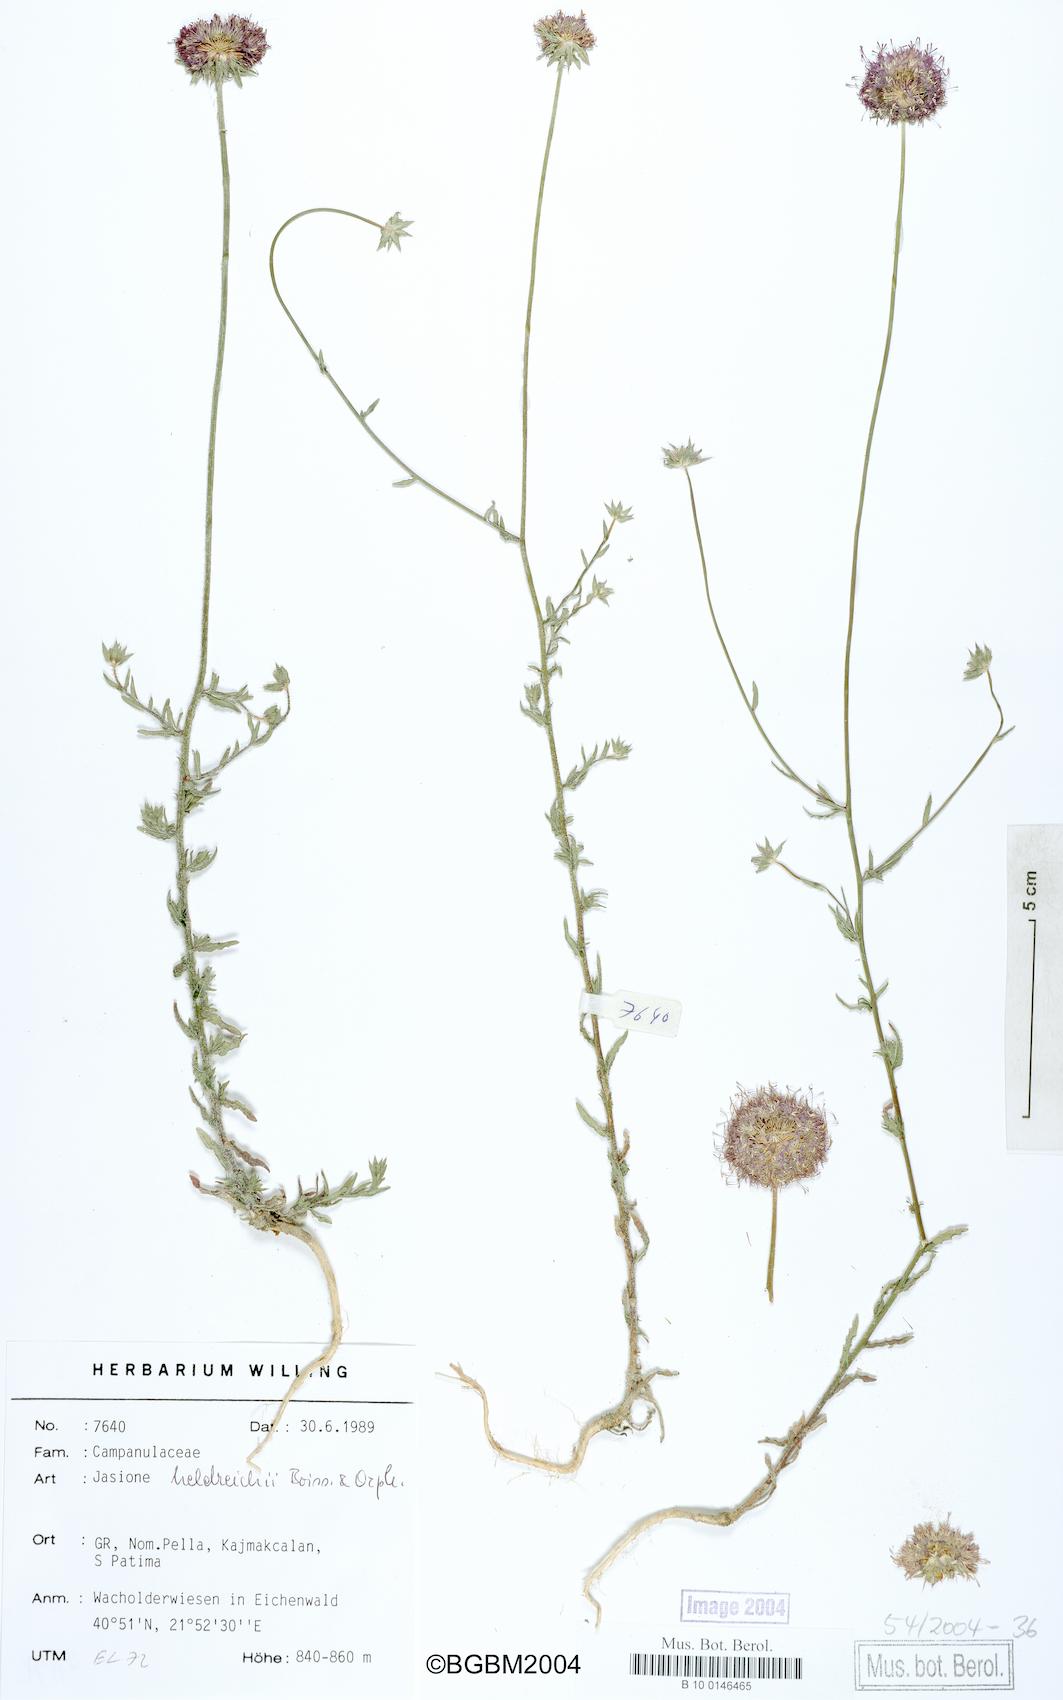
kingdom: Plantae
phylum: Tracheophyta
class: Magnoliopsida
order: Asterales
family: Campanulaceae
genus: Jasione
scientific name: Jasione heldreichii
